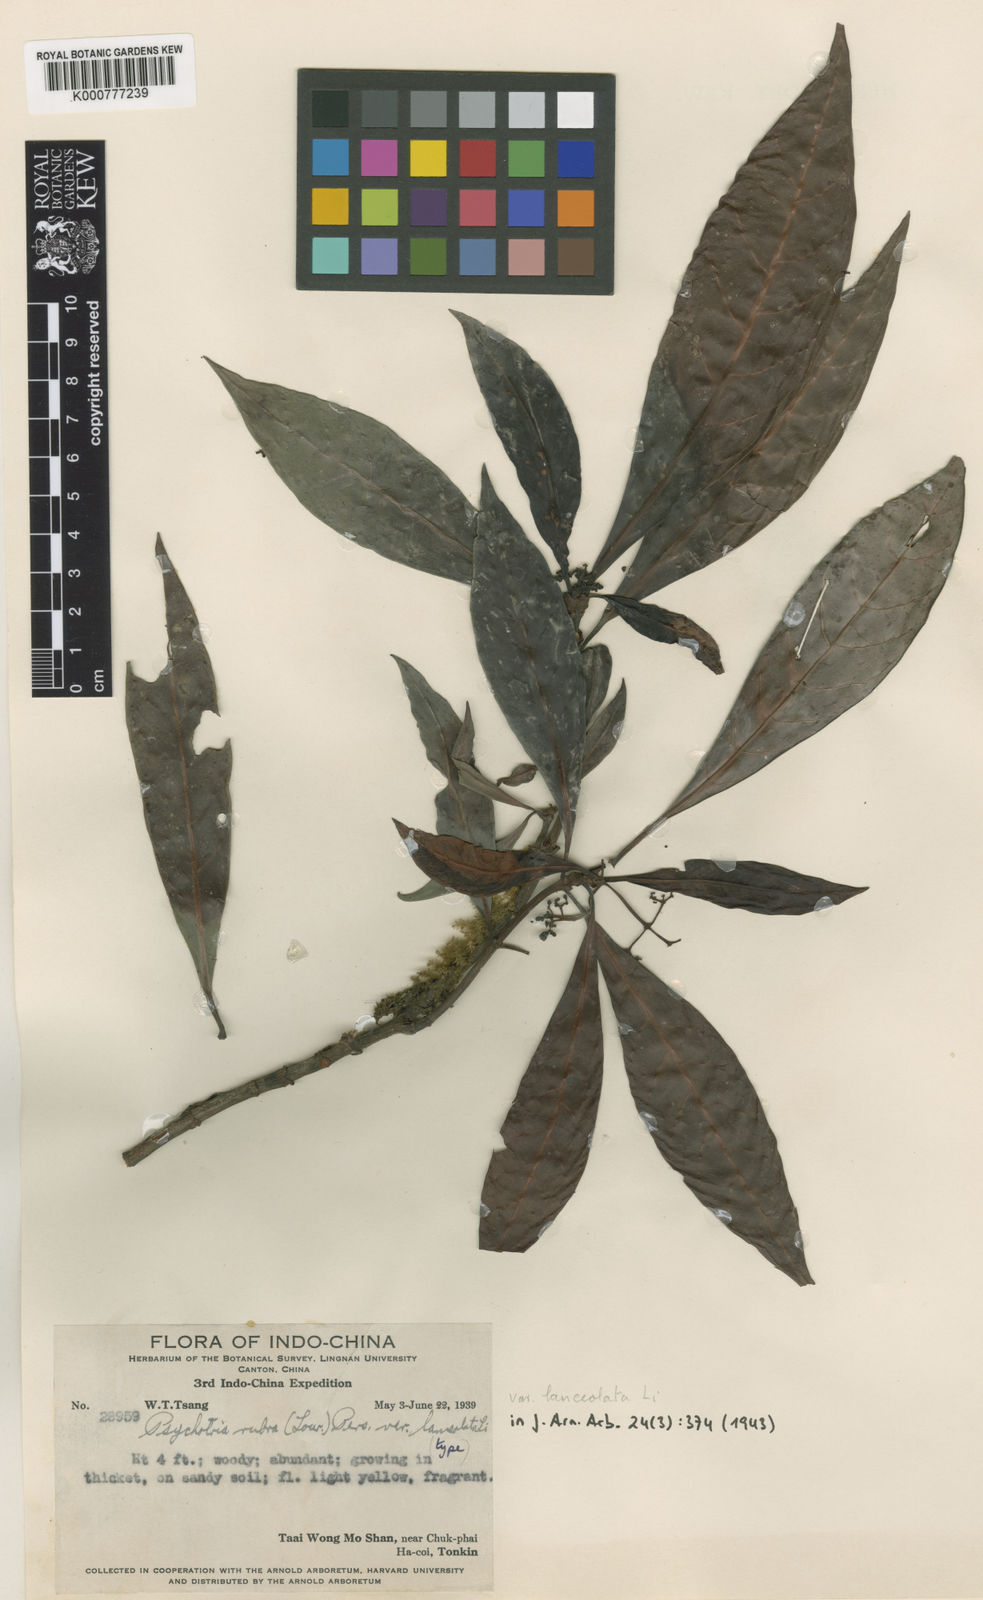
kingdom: Plantae
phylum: Tracheophyta
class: Magnoliopsida
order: Gentianales
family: Rubiaceae
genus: Psychotria
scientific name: Psychotria asiatica
